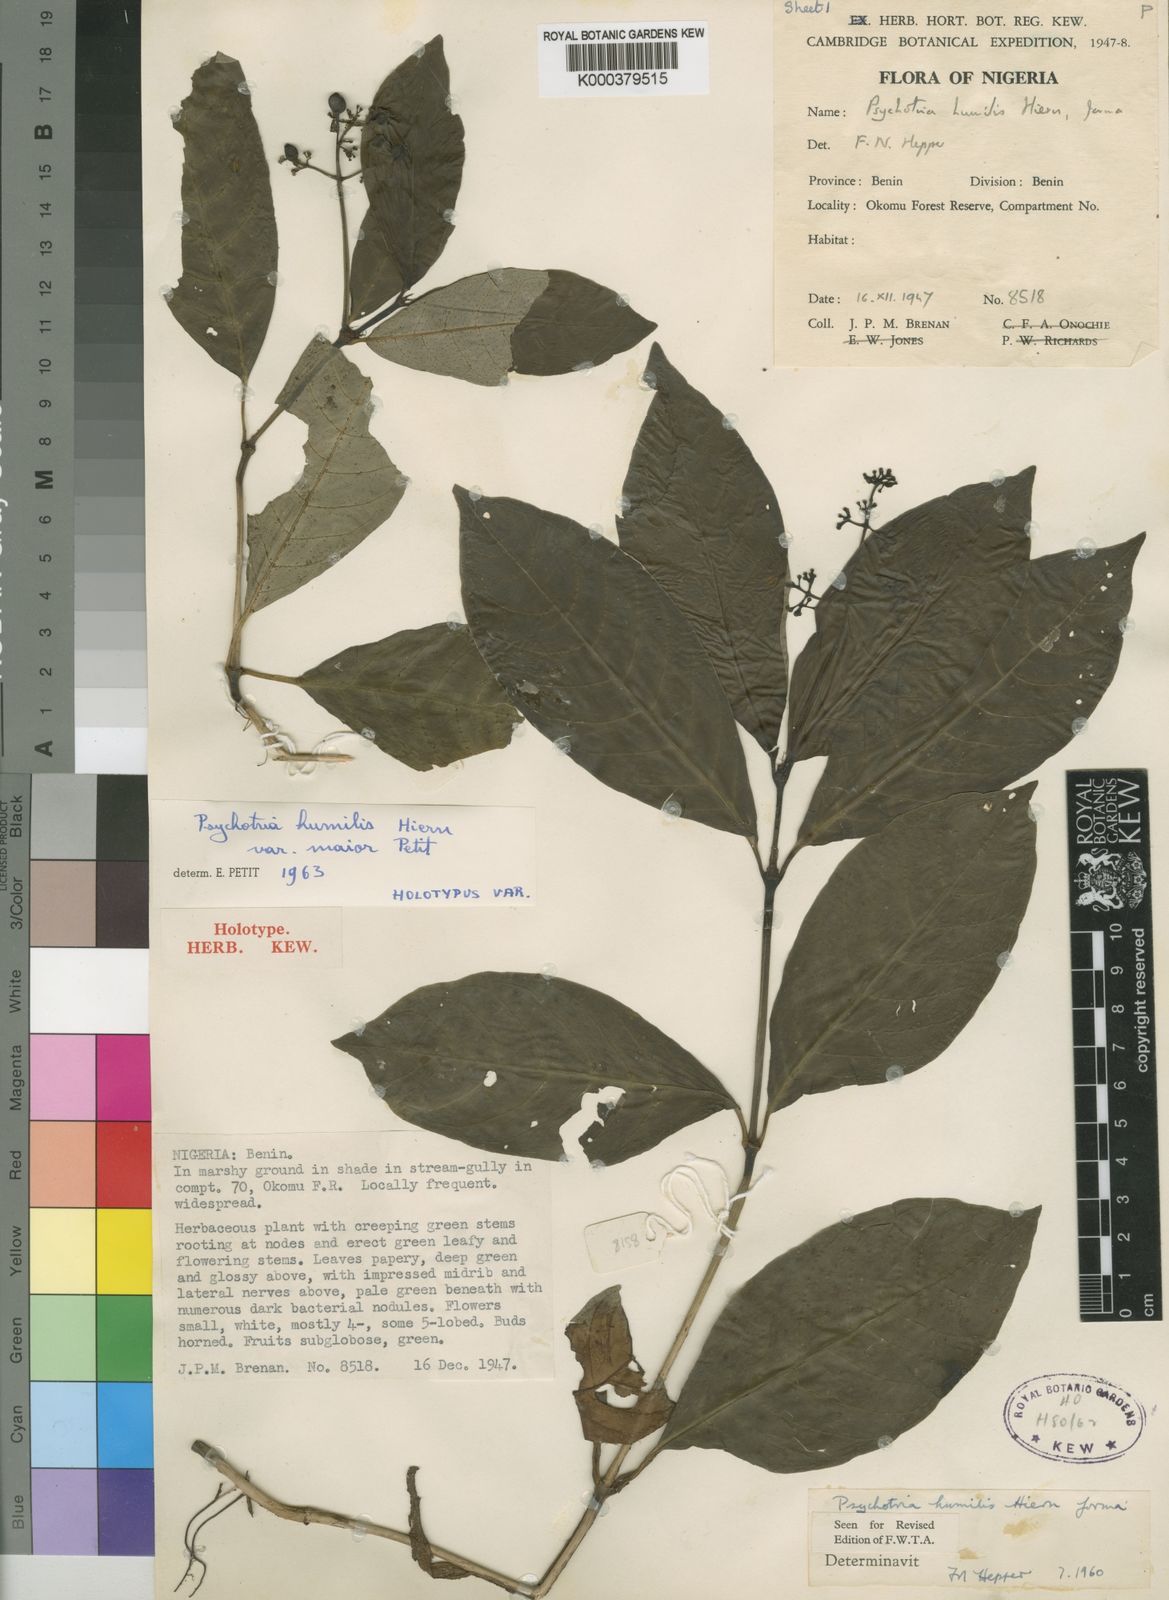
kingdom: Plantae
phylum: Tracheophyta
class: Magnoliopsida
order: Gentianales
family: Rubiaceae
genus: Psychotria
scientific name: Psychotria cornuta
